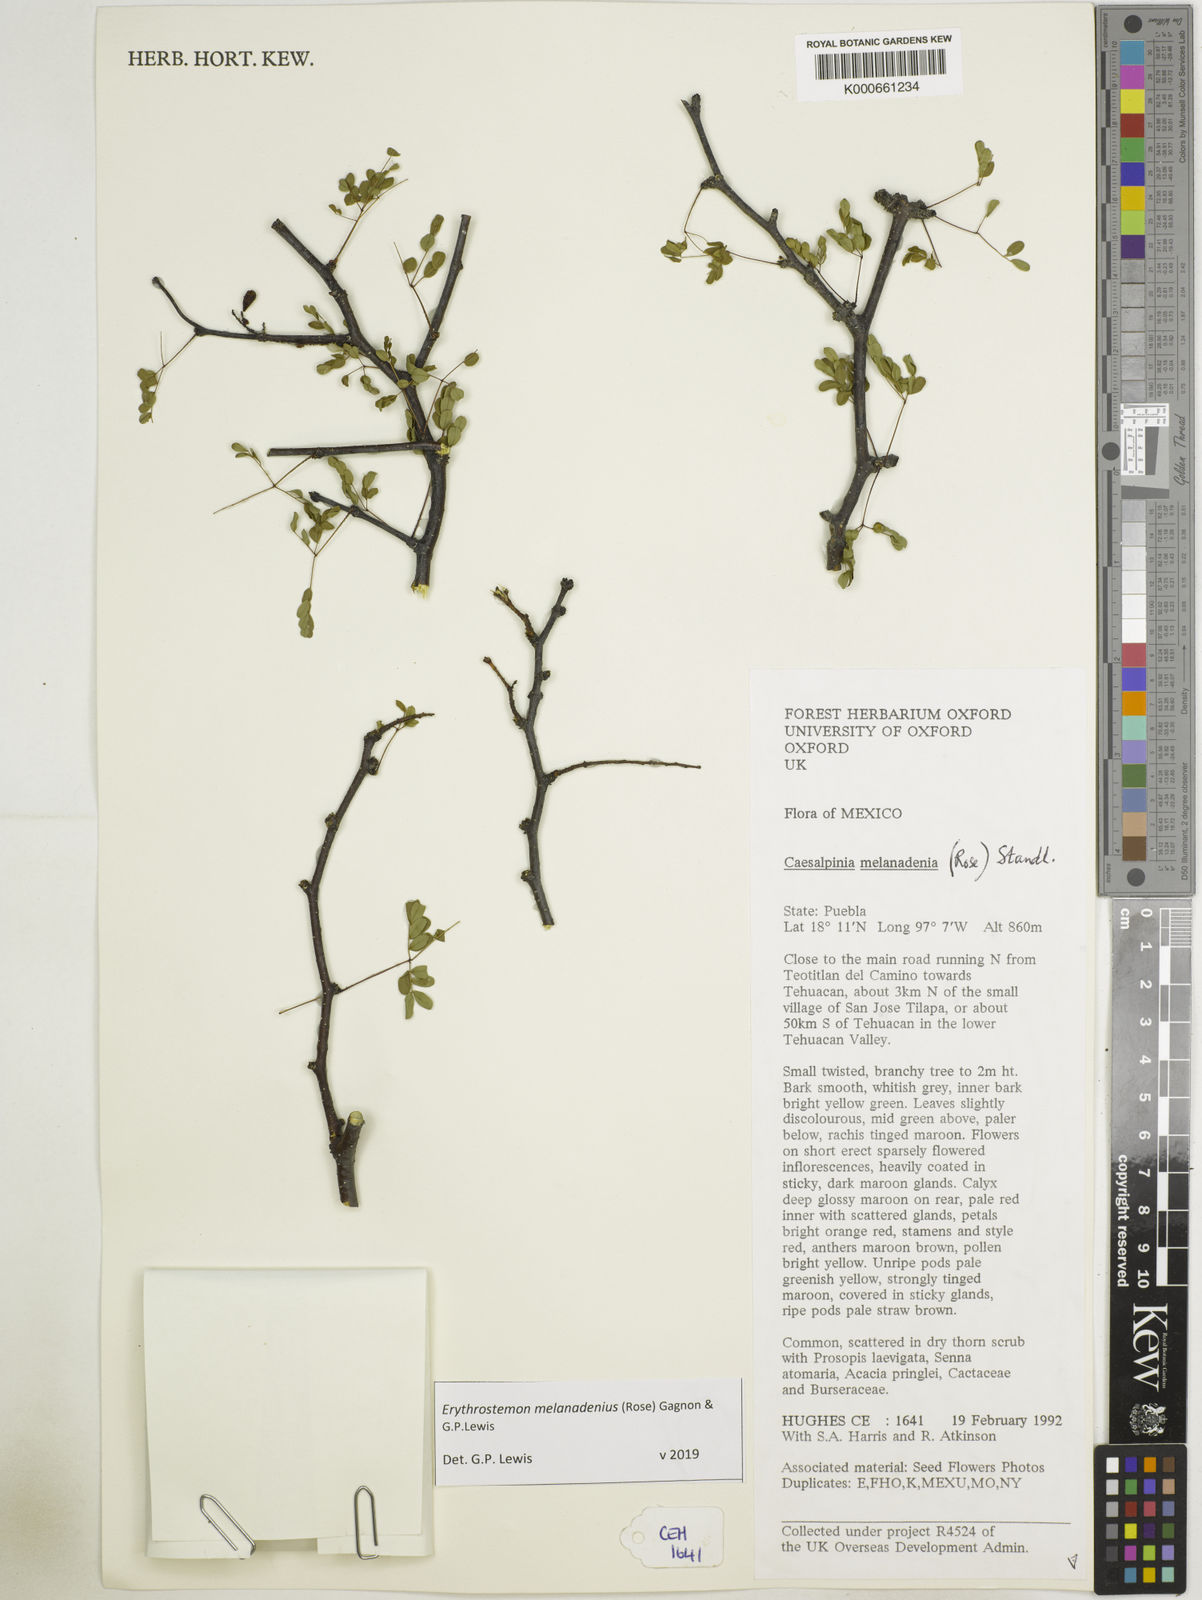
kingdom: Plantae
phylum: Tracheophyta
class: Magnoliopsida
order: Fabales
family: Fabaceae
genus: Erythrostemon
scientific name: Erythrostemon melanadenius
